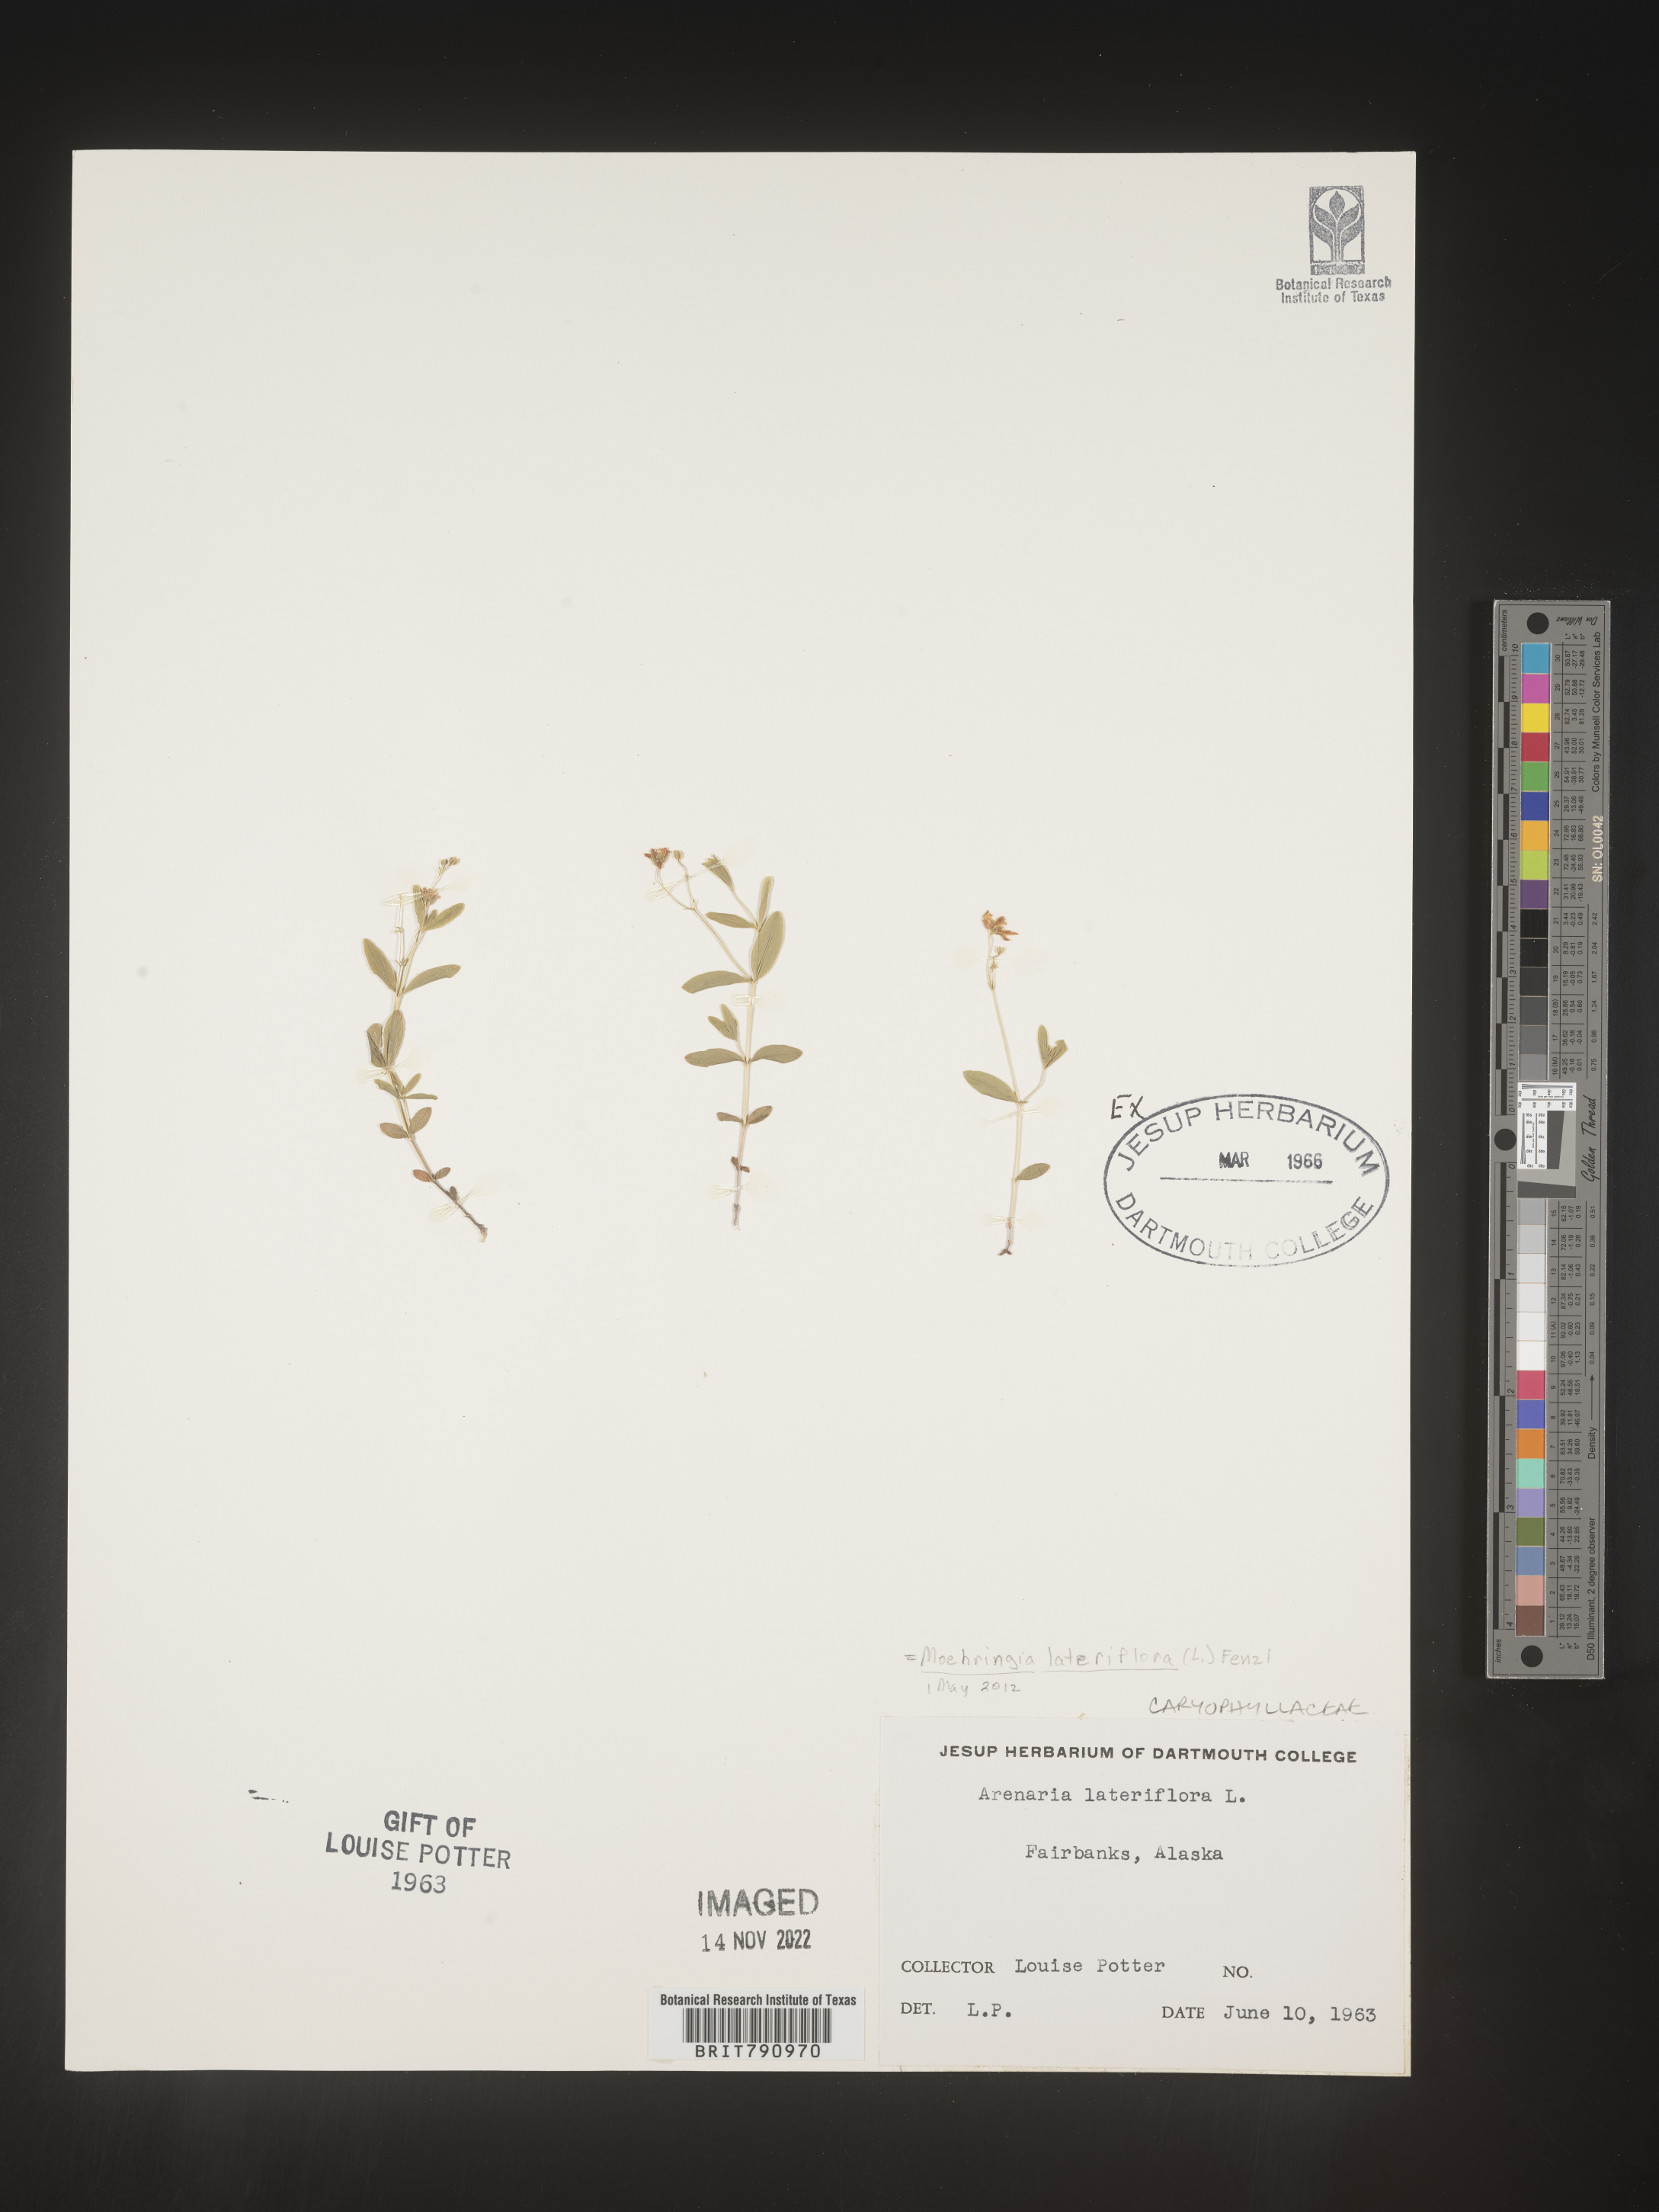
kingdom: Plantae
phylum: Tracheophyta
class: Magnoliopsida
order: Caryophyllales
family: Caryophyllaceae
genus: Moehringia
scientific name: Moehringia
